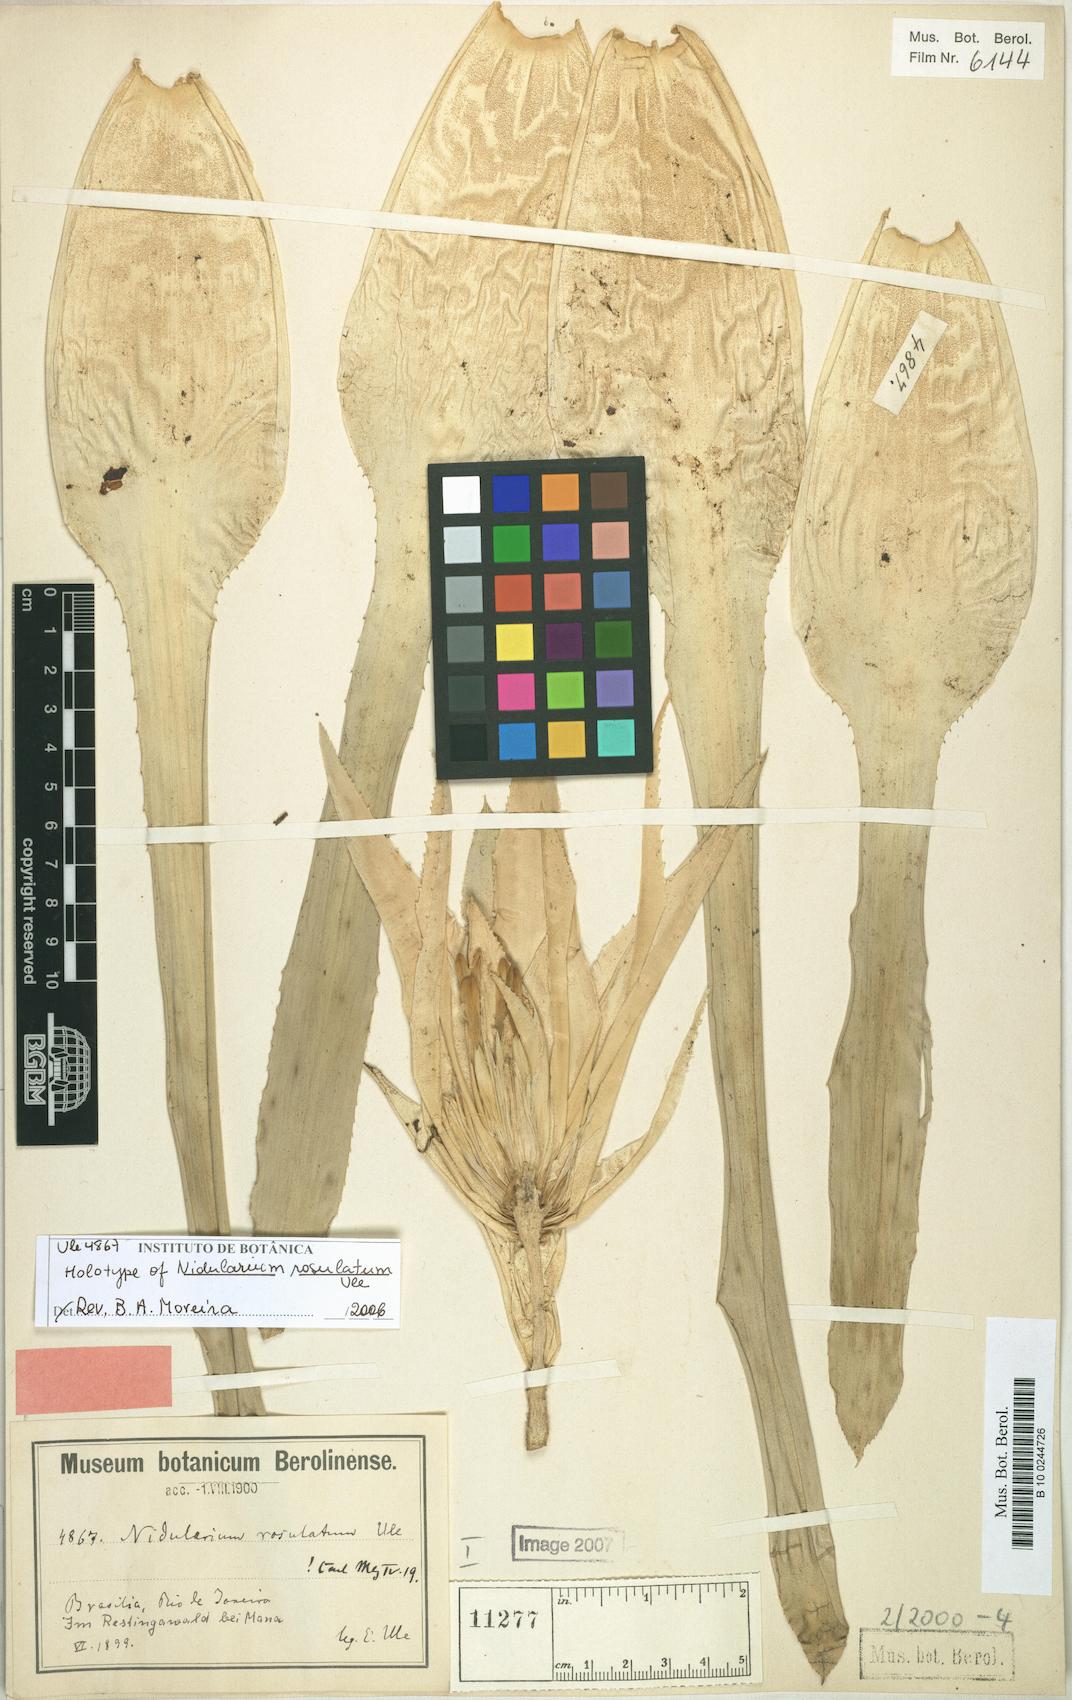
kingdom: Plantae
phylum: Tracheophyta
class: Liliopsida
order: Poales
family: Bromeliaceae
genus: Nidularium
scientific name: Nidularium rosulatum
